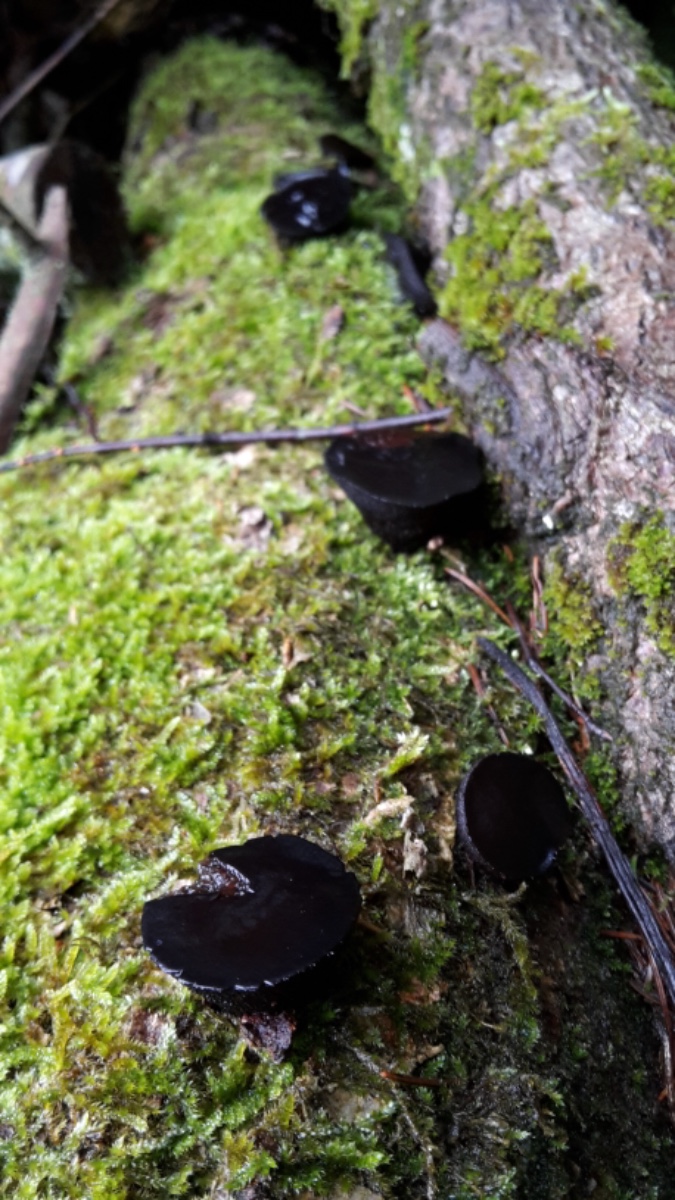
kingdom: Fungi
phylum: Ascomycota
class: Leotiomycetes
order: Phacidiales
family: Phacidiaceae
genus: Bulgaria
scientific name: Bulgaria inquinans
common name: afsmittende topsvamp
